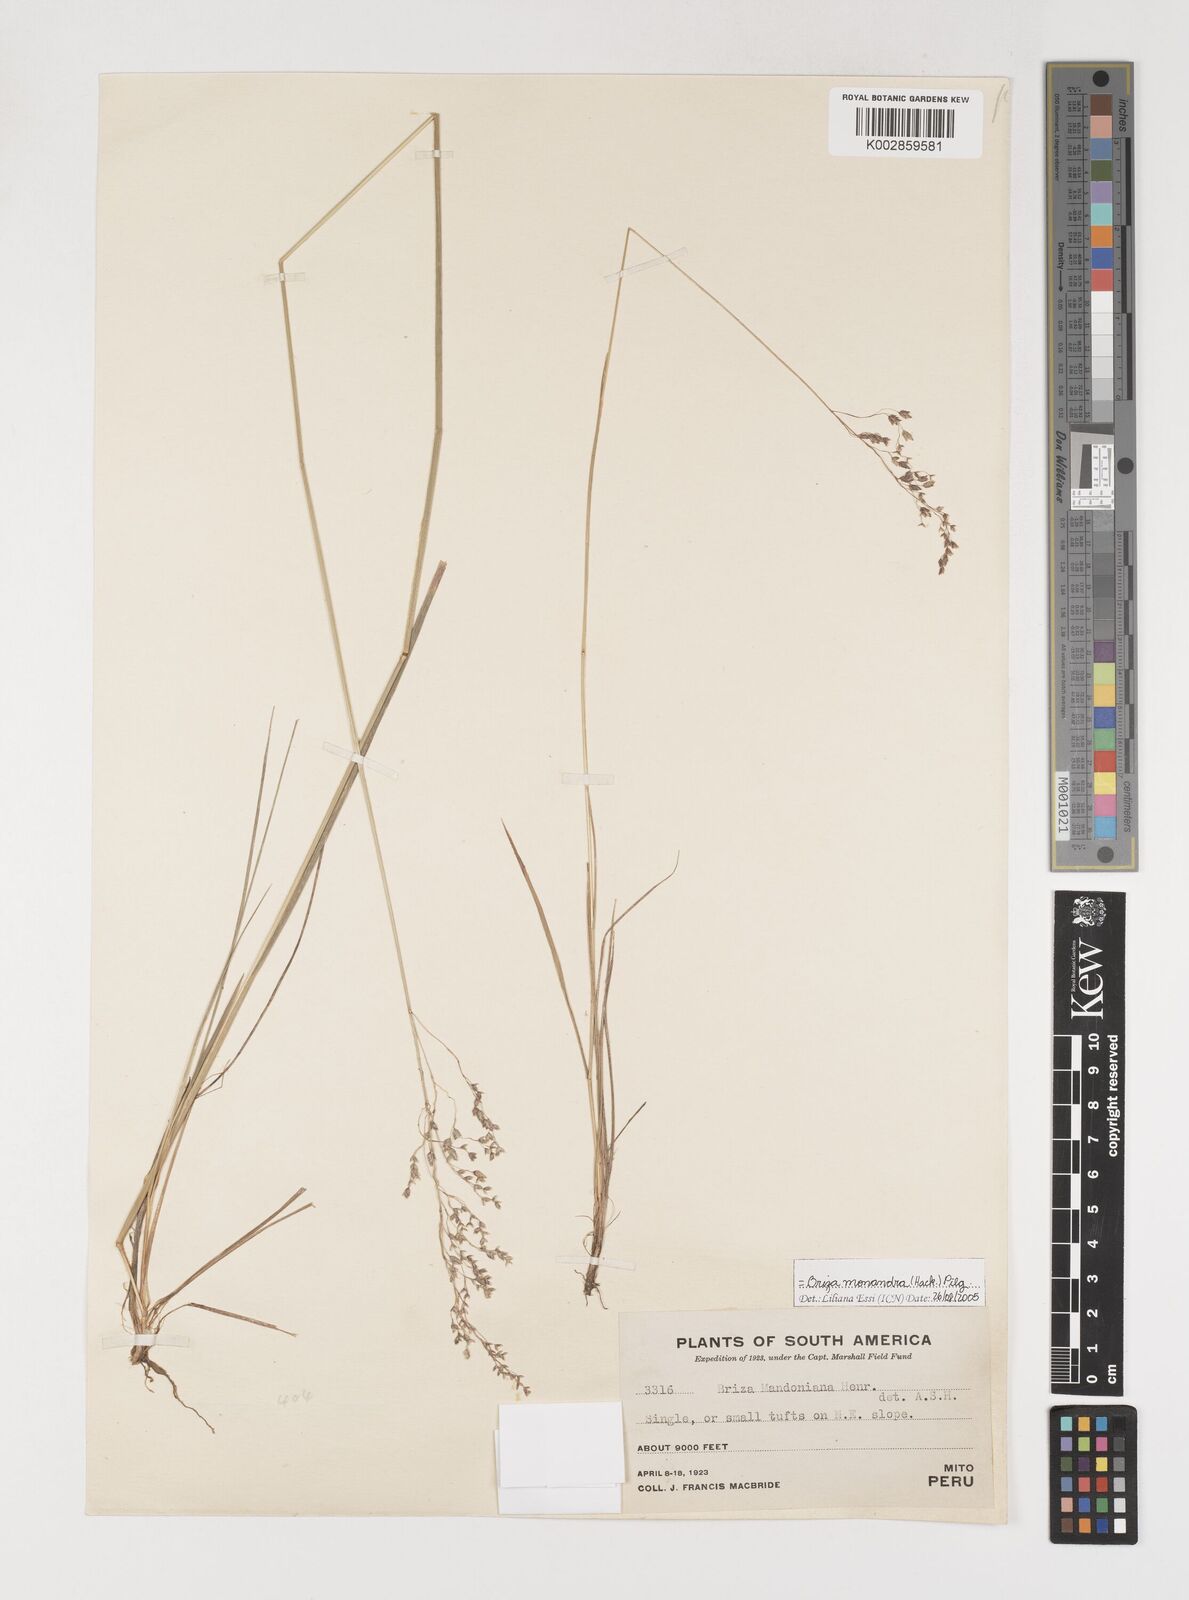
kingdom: Plantae
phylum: Tracheophyta
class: Liliopsida
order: Poales
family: Poaceae
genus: Poidium
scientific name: Poidium monandrum
